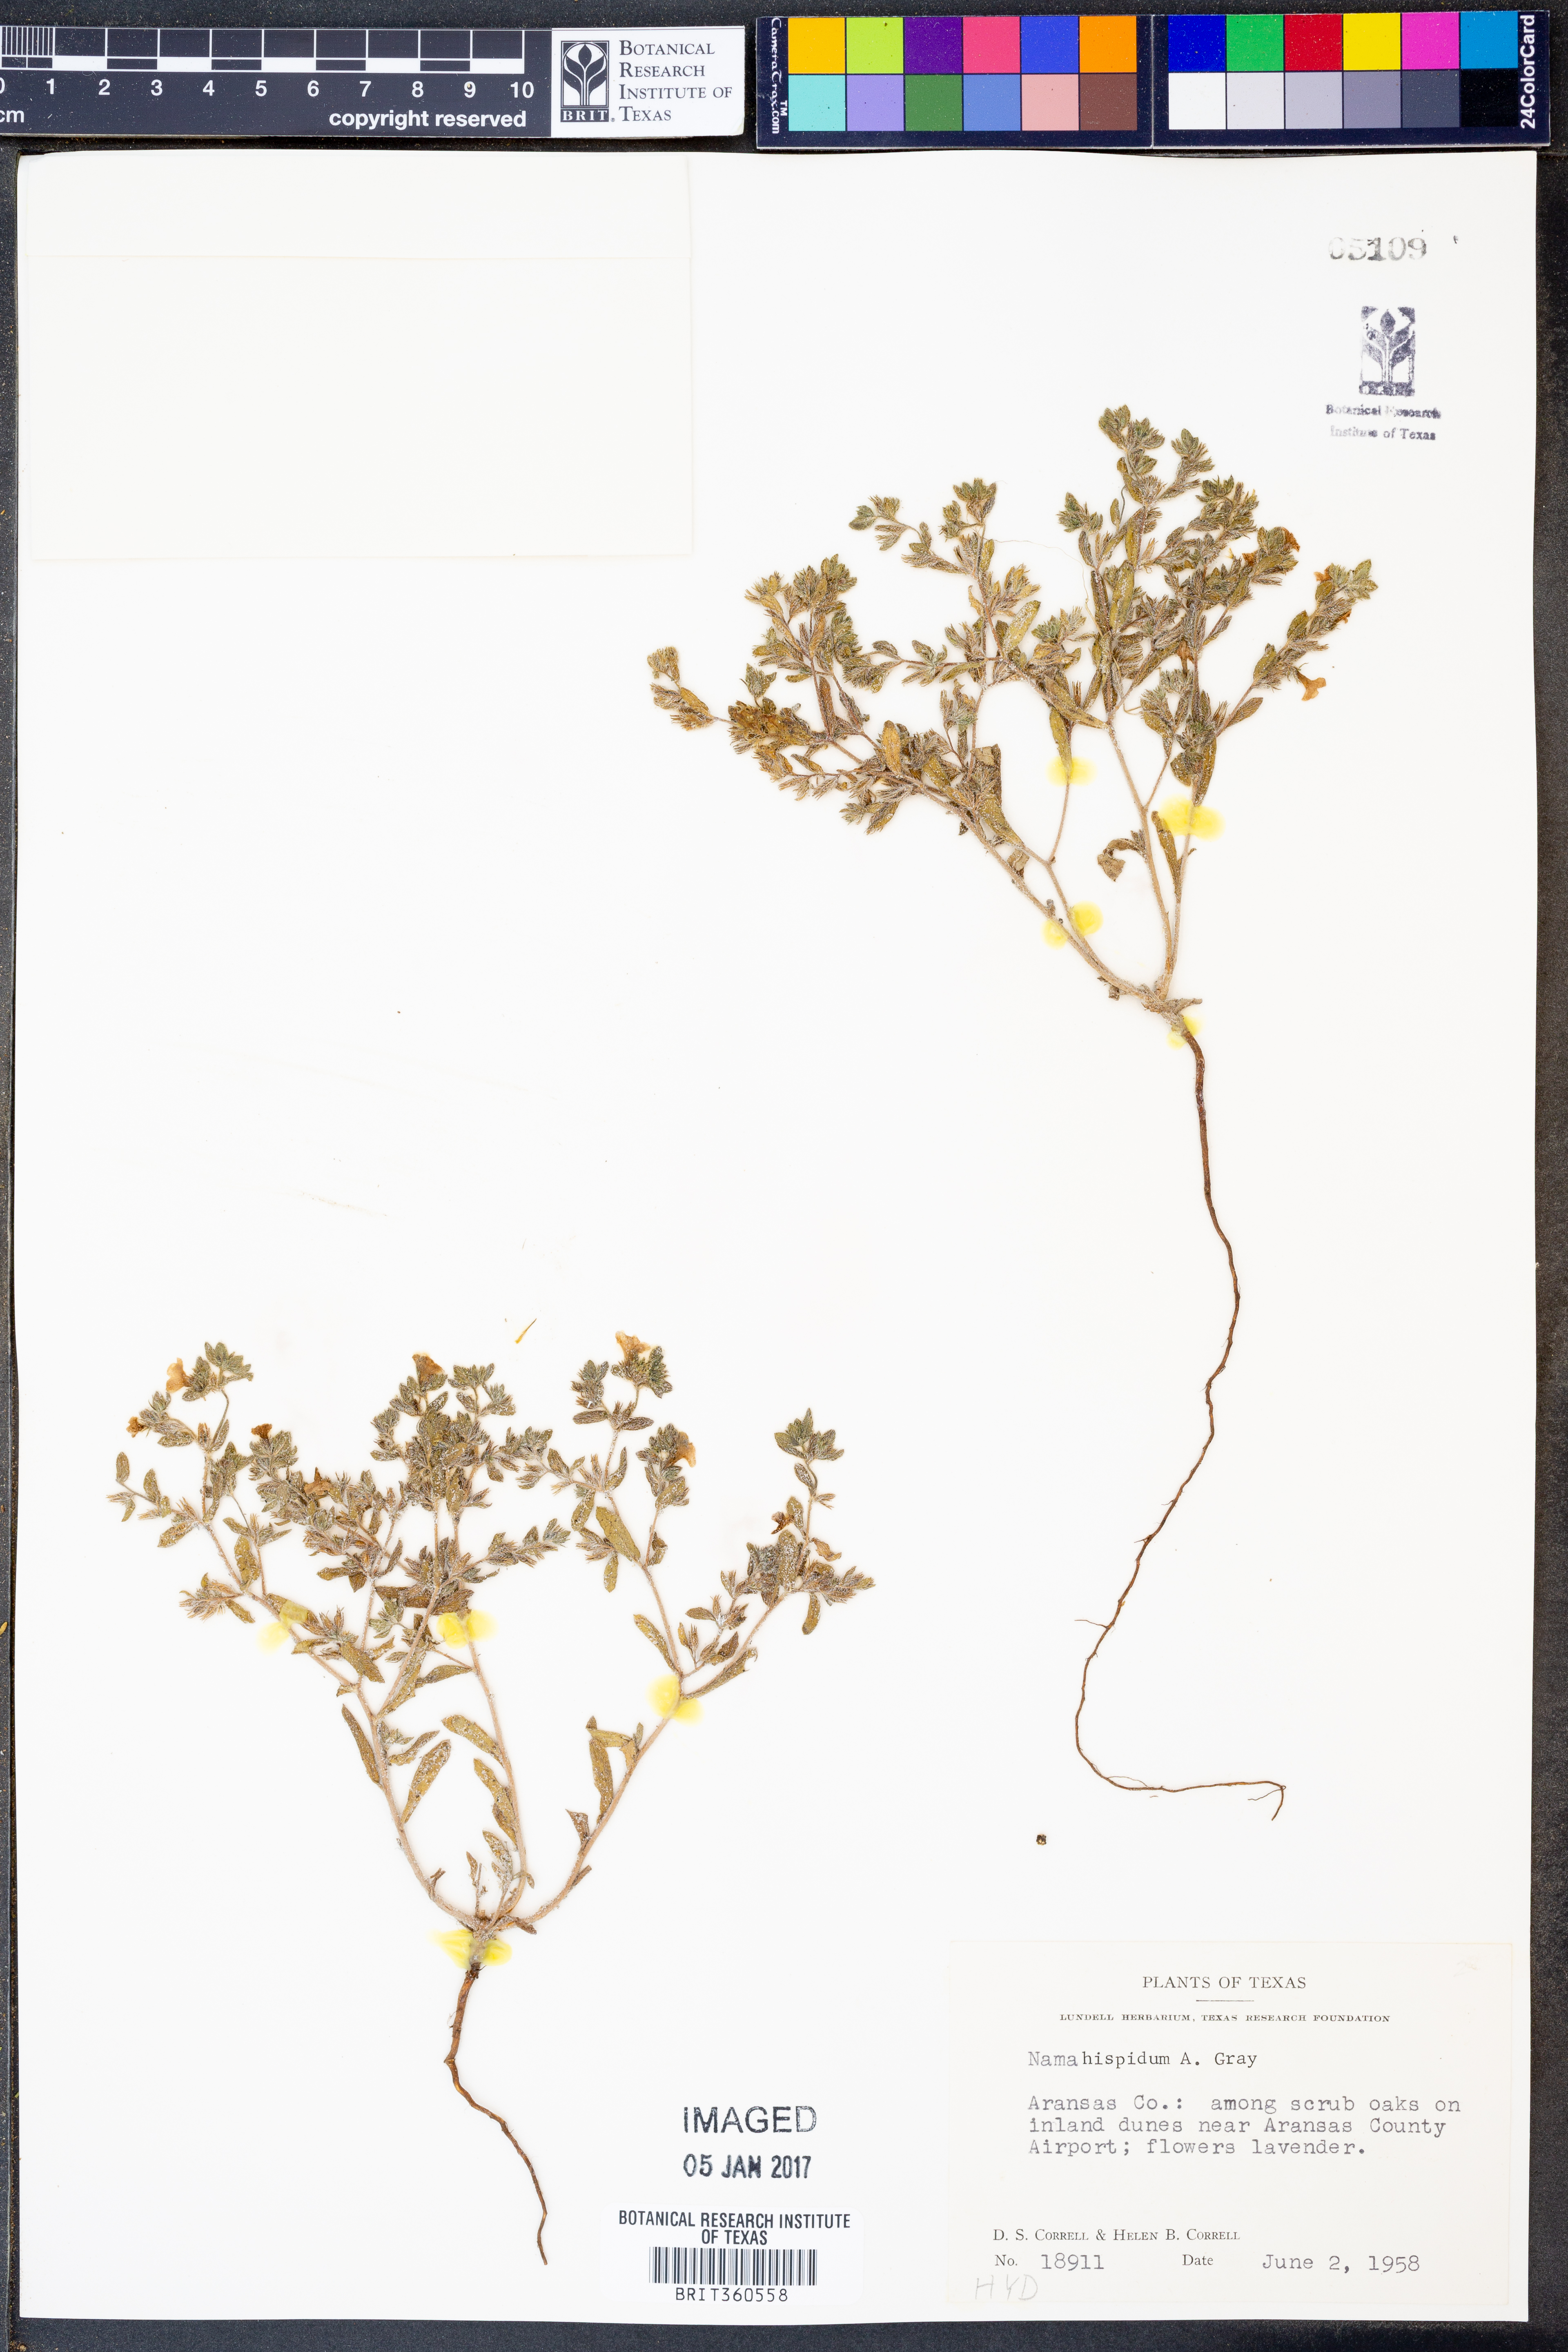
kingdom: Plantae
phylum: Tracheophyta
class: Magnoliopsida
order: Boraginales
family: Namaceae
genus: Nama
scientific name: Nama hispida
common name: Bristly nama
